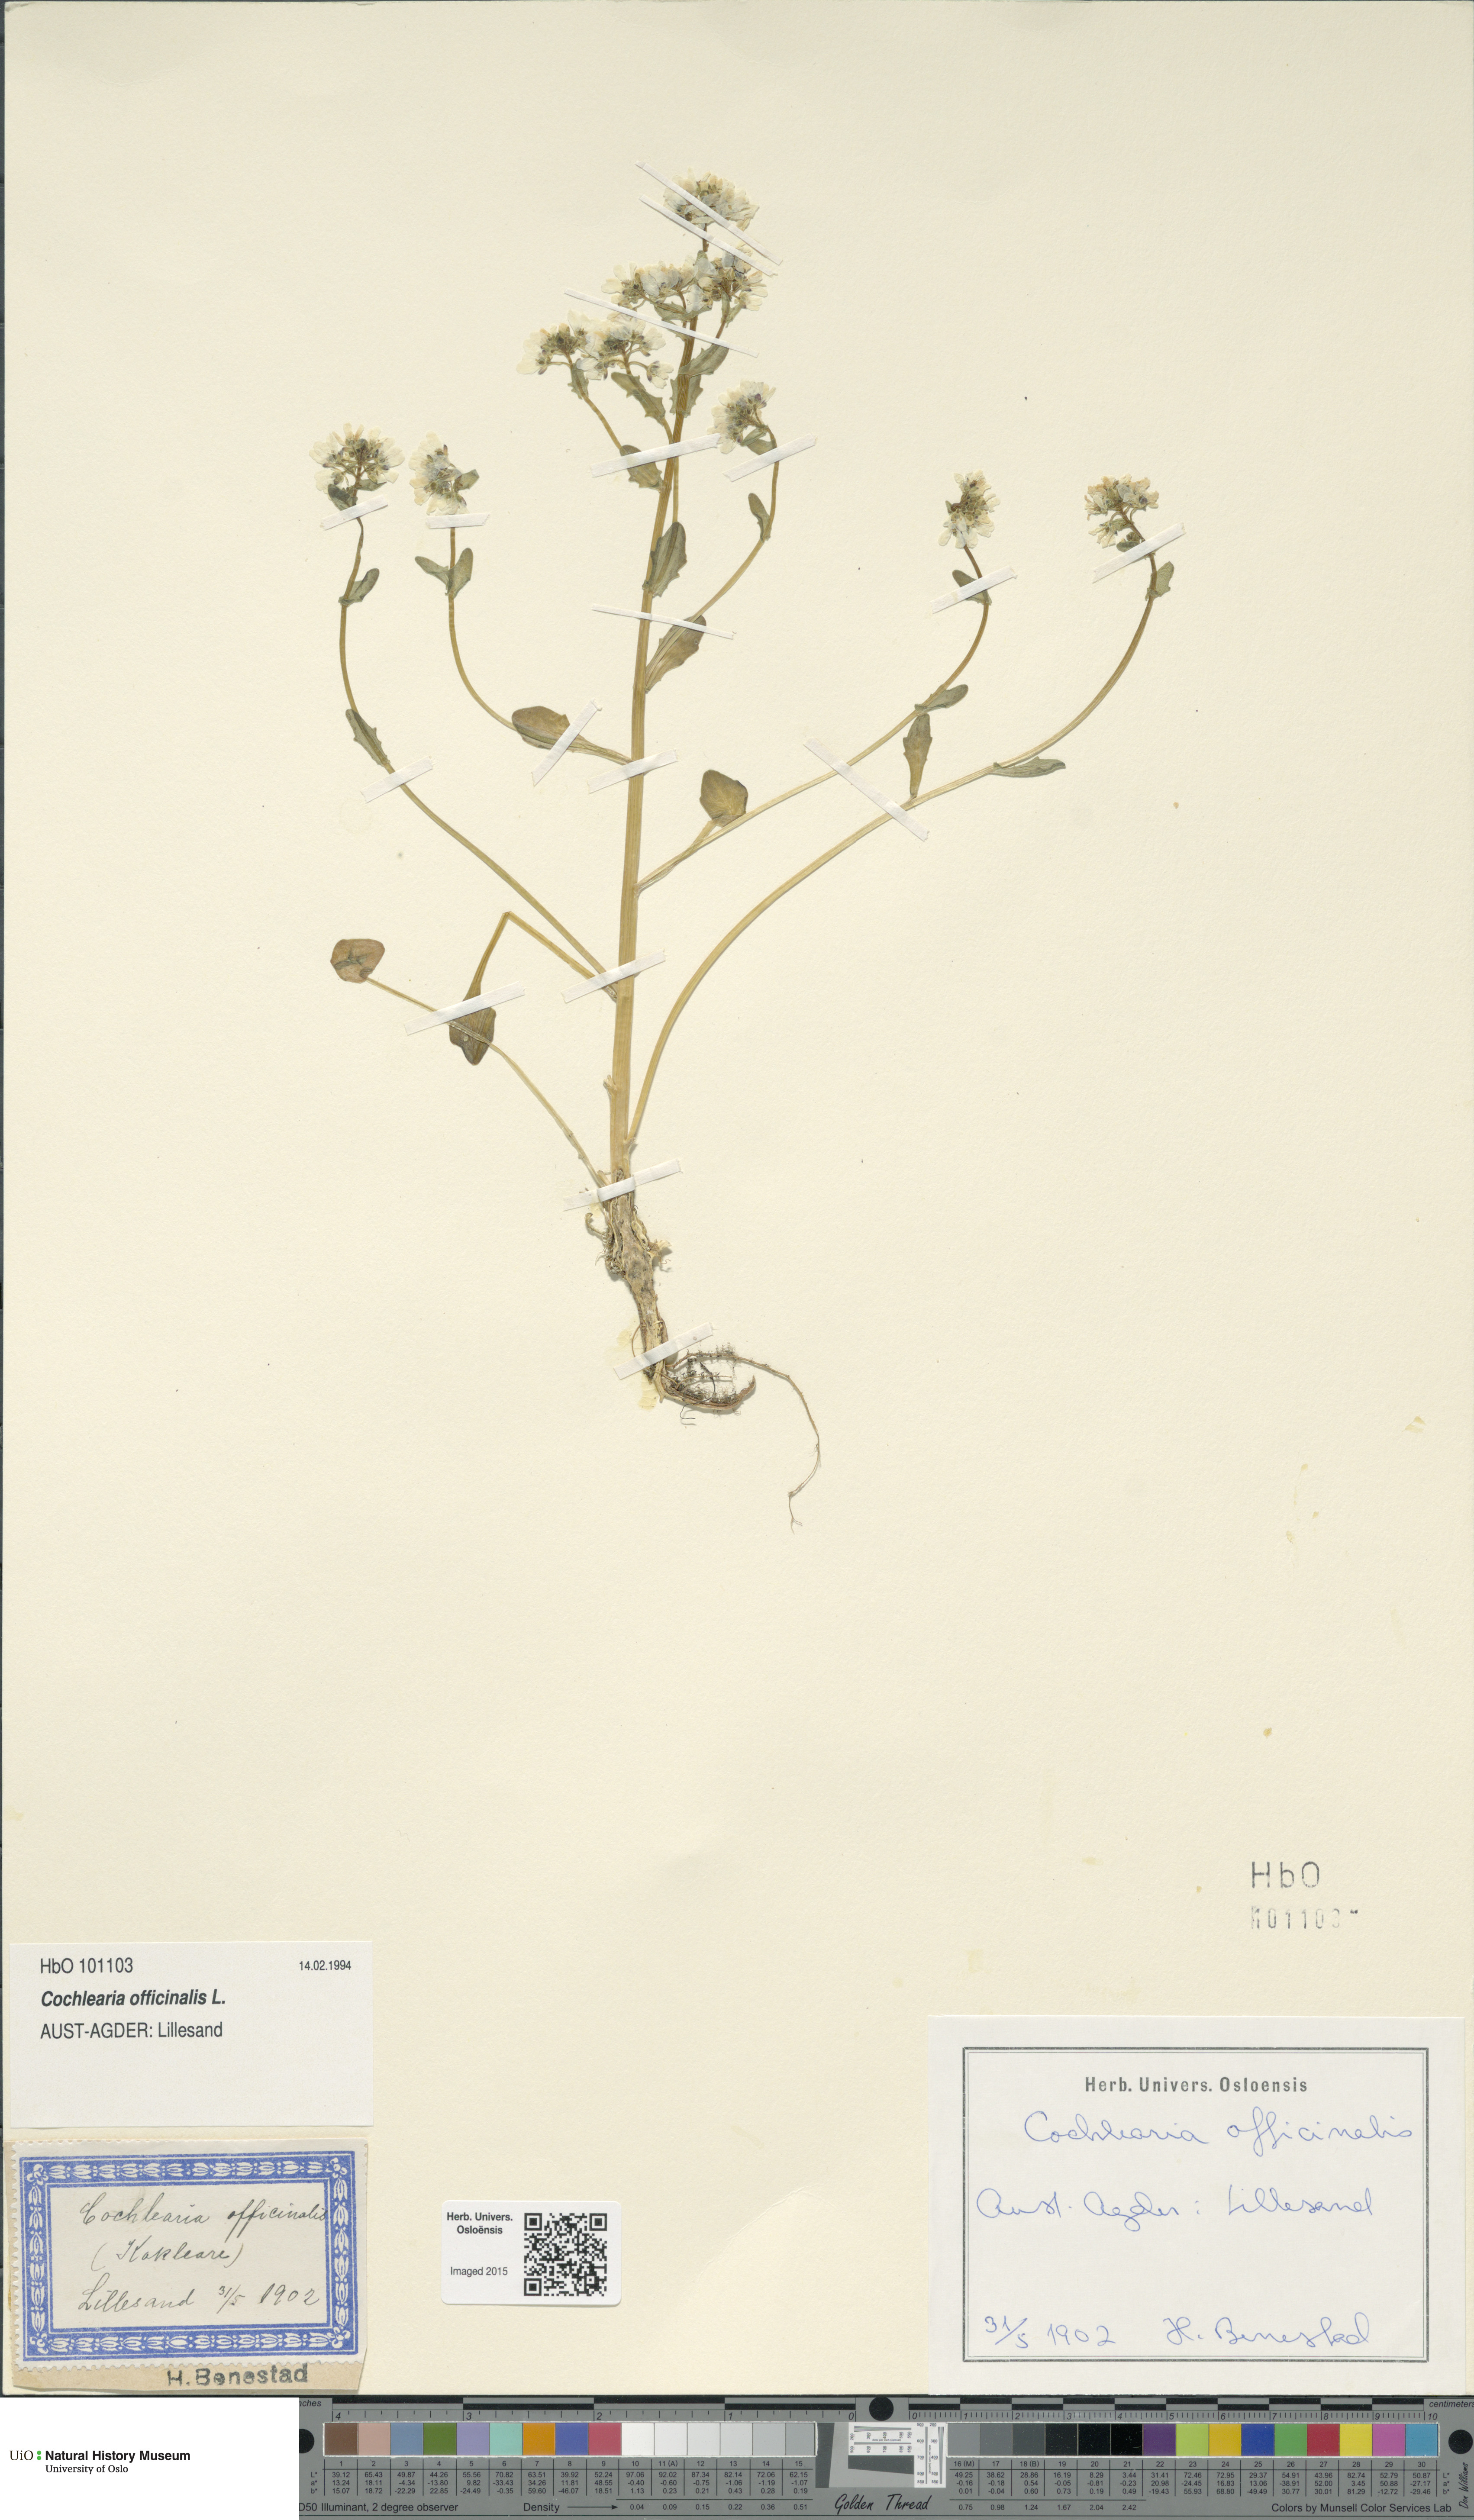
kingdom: Plantae
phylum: Tracheophyta
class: Magnoliopsida
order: Brassicales
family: Brassicaceae
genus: Cochlearia
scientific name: Cochlearia officinalis
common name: Scurvy-grass
